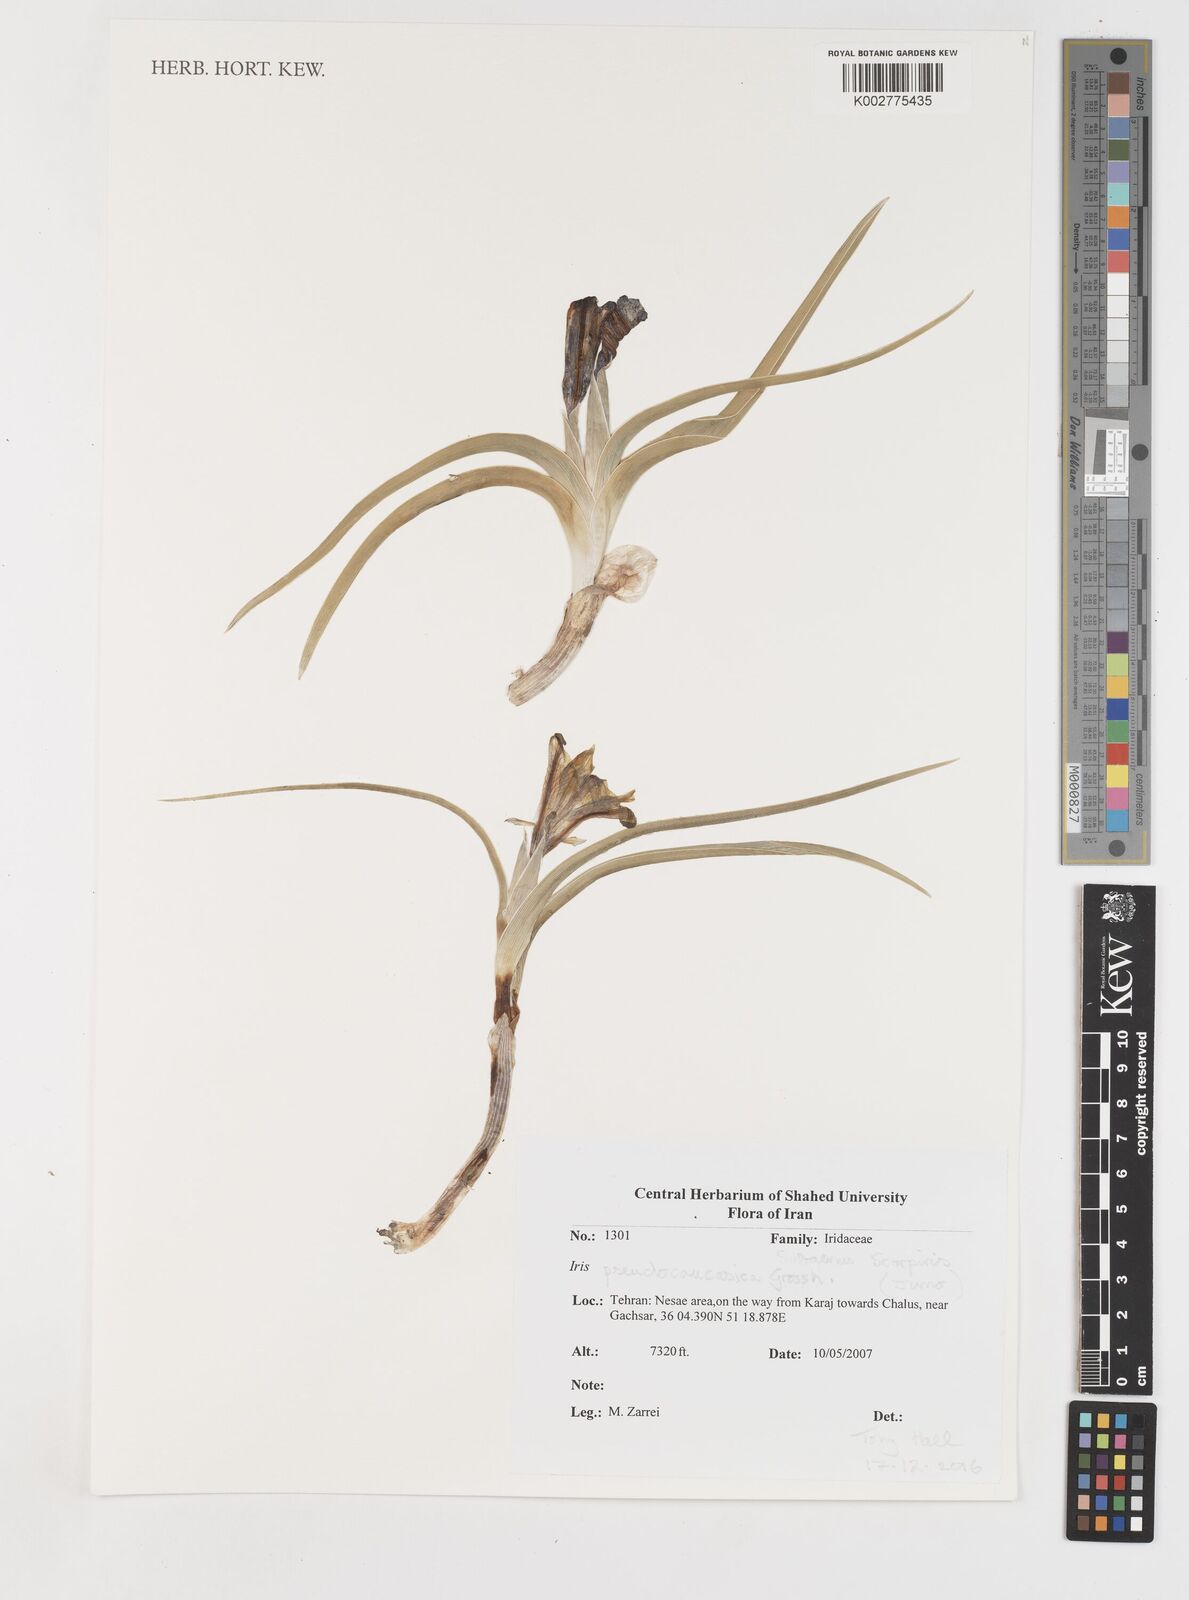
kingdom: Plantae
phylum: Tracheophyta
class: Liliopsida
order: Asparagales
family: Iridaceae
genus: Iris
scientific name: Iris pseudocaucasica
